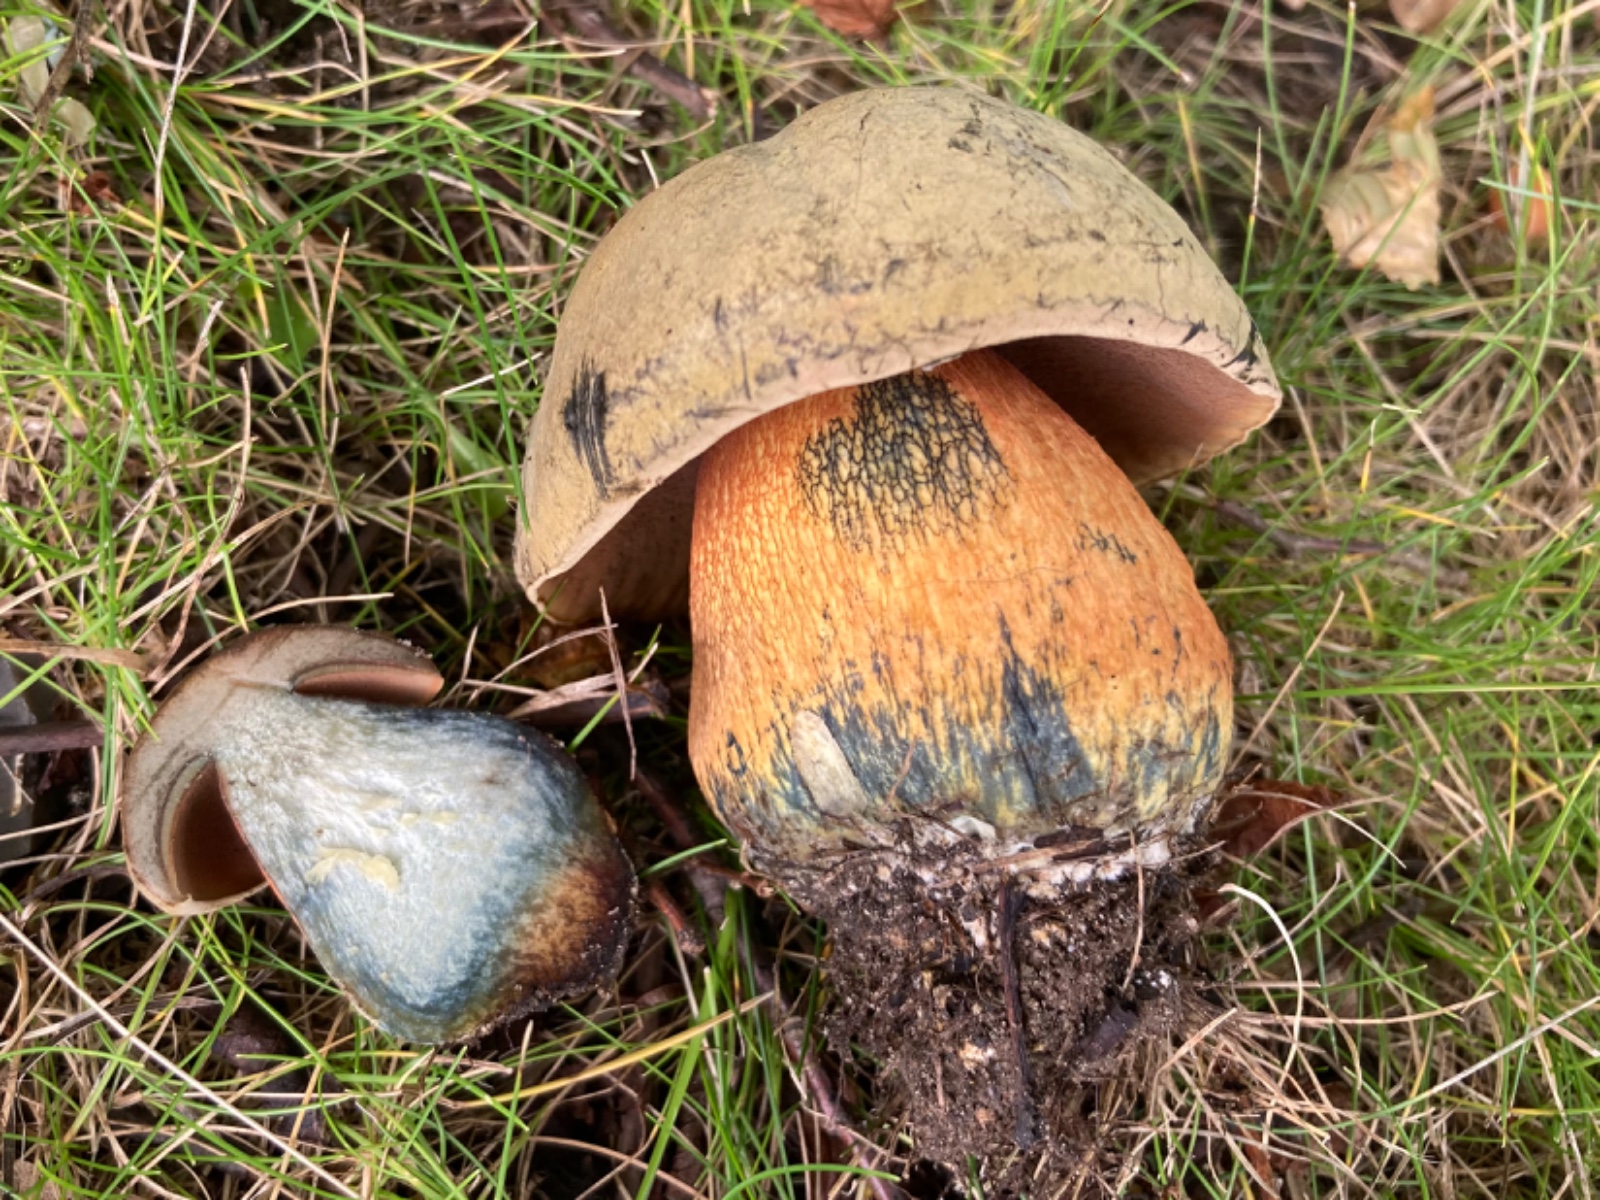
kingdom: Fungi
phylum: Basidiomycota
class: Agaricomycetes
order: Boletales
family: Boletaceae
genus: Suillellus
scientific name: Suillellus luridus
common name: netstokket indigorørhat
